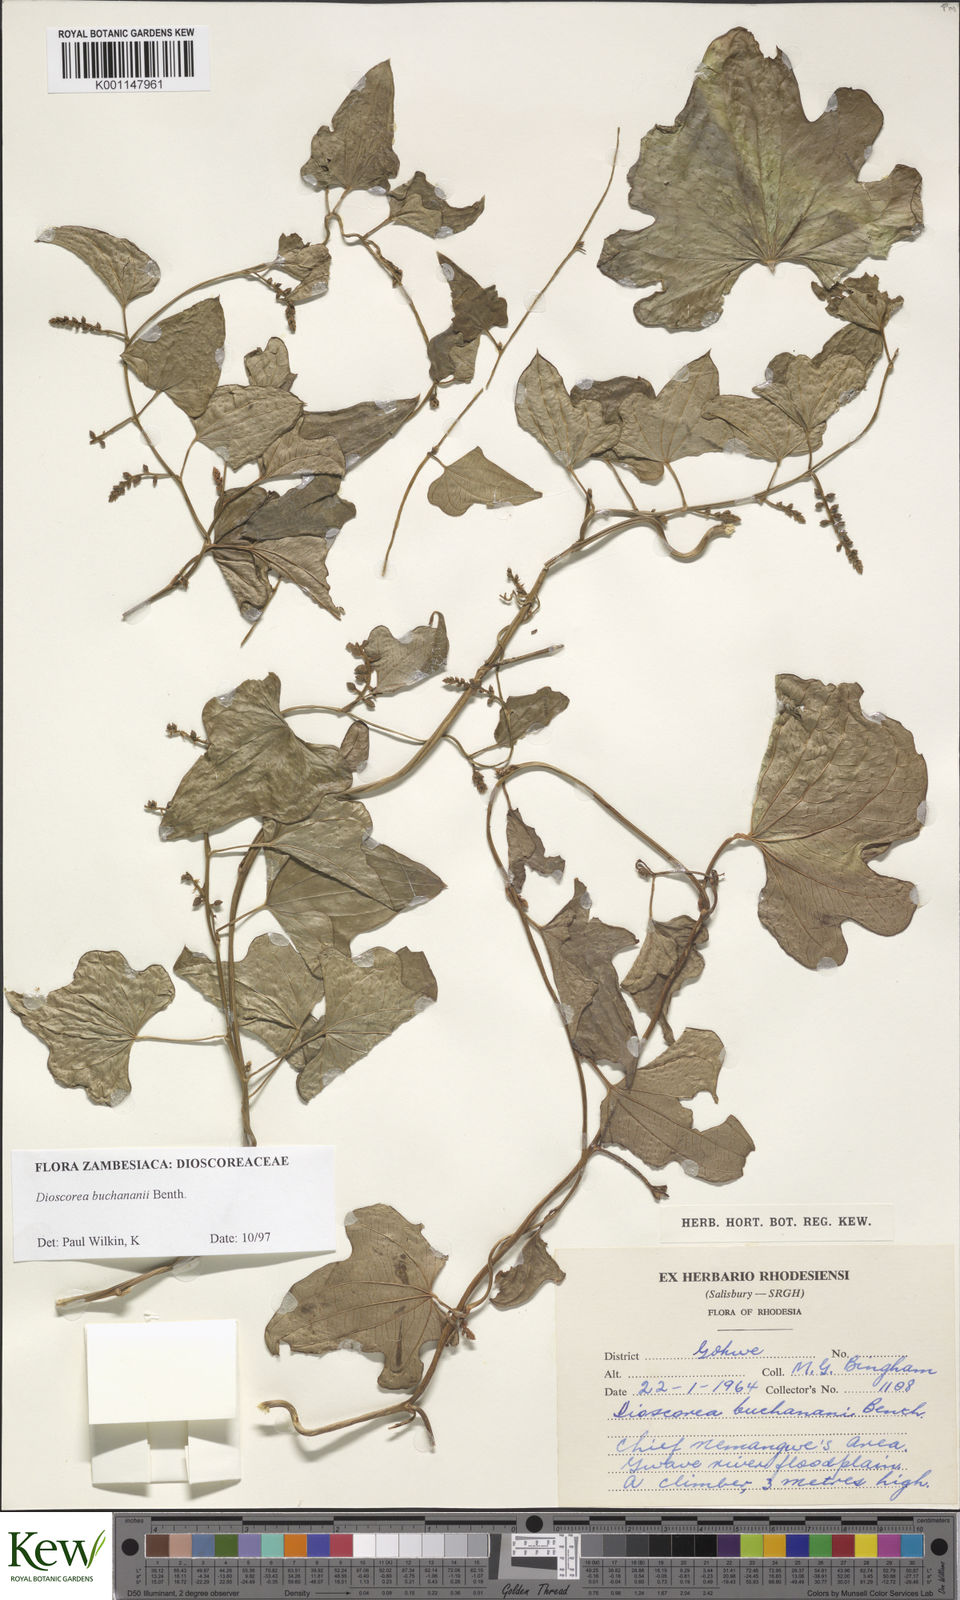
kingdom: Plantae
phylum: Tracheophyta
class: Liliopsida
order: Dioscoreales
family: Dioscoreaceae
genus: Dioscorea
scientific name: Dioscorea buchananii
